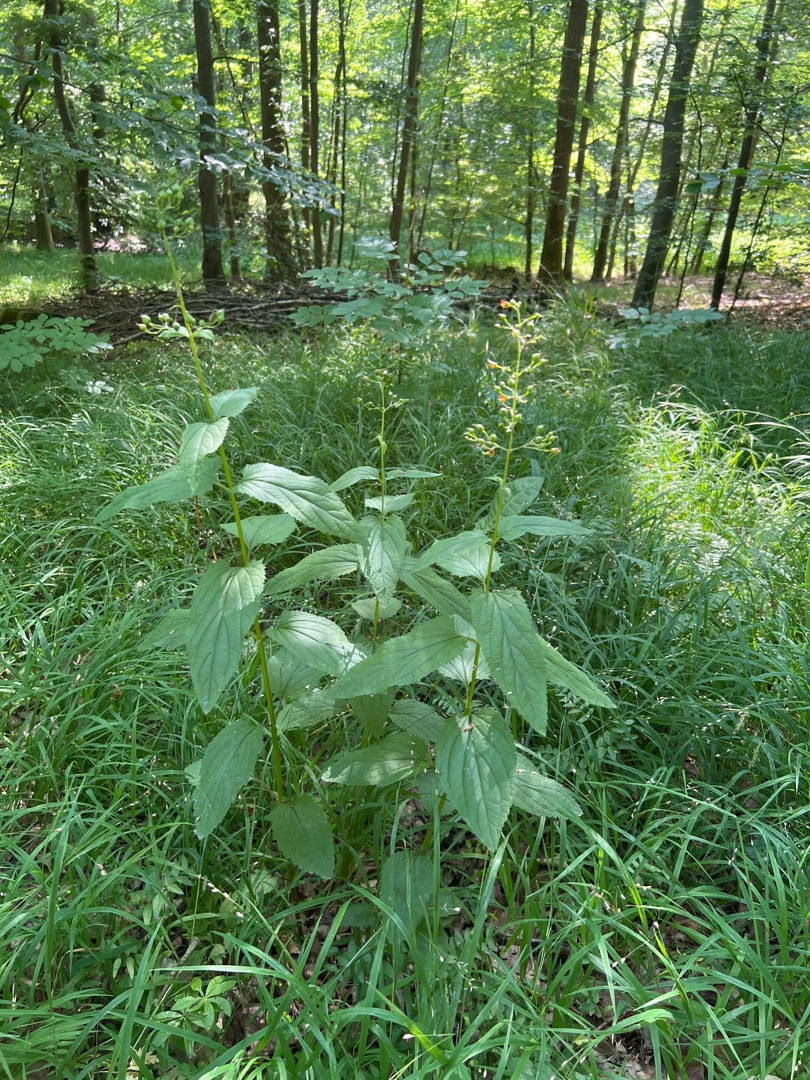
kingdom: Plantae
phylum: Tracheophyta
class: Magnoliopsida
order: Lamiales
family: Scrophulariaceae
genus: Scrophularia
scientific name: Scrophularia nodosa
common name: Knoldet brunrod
